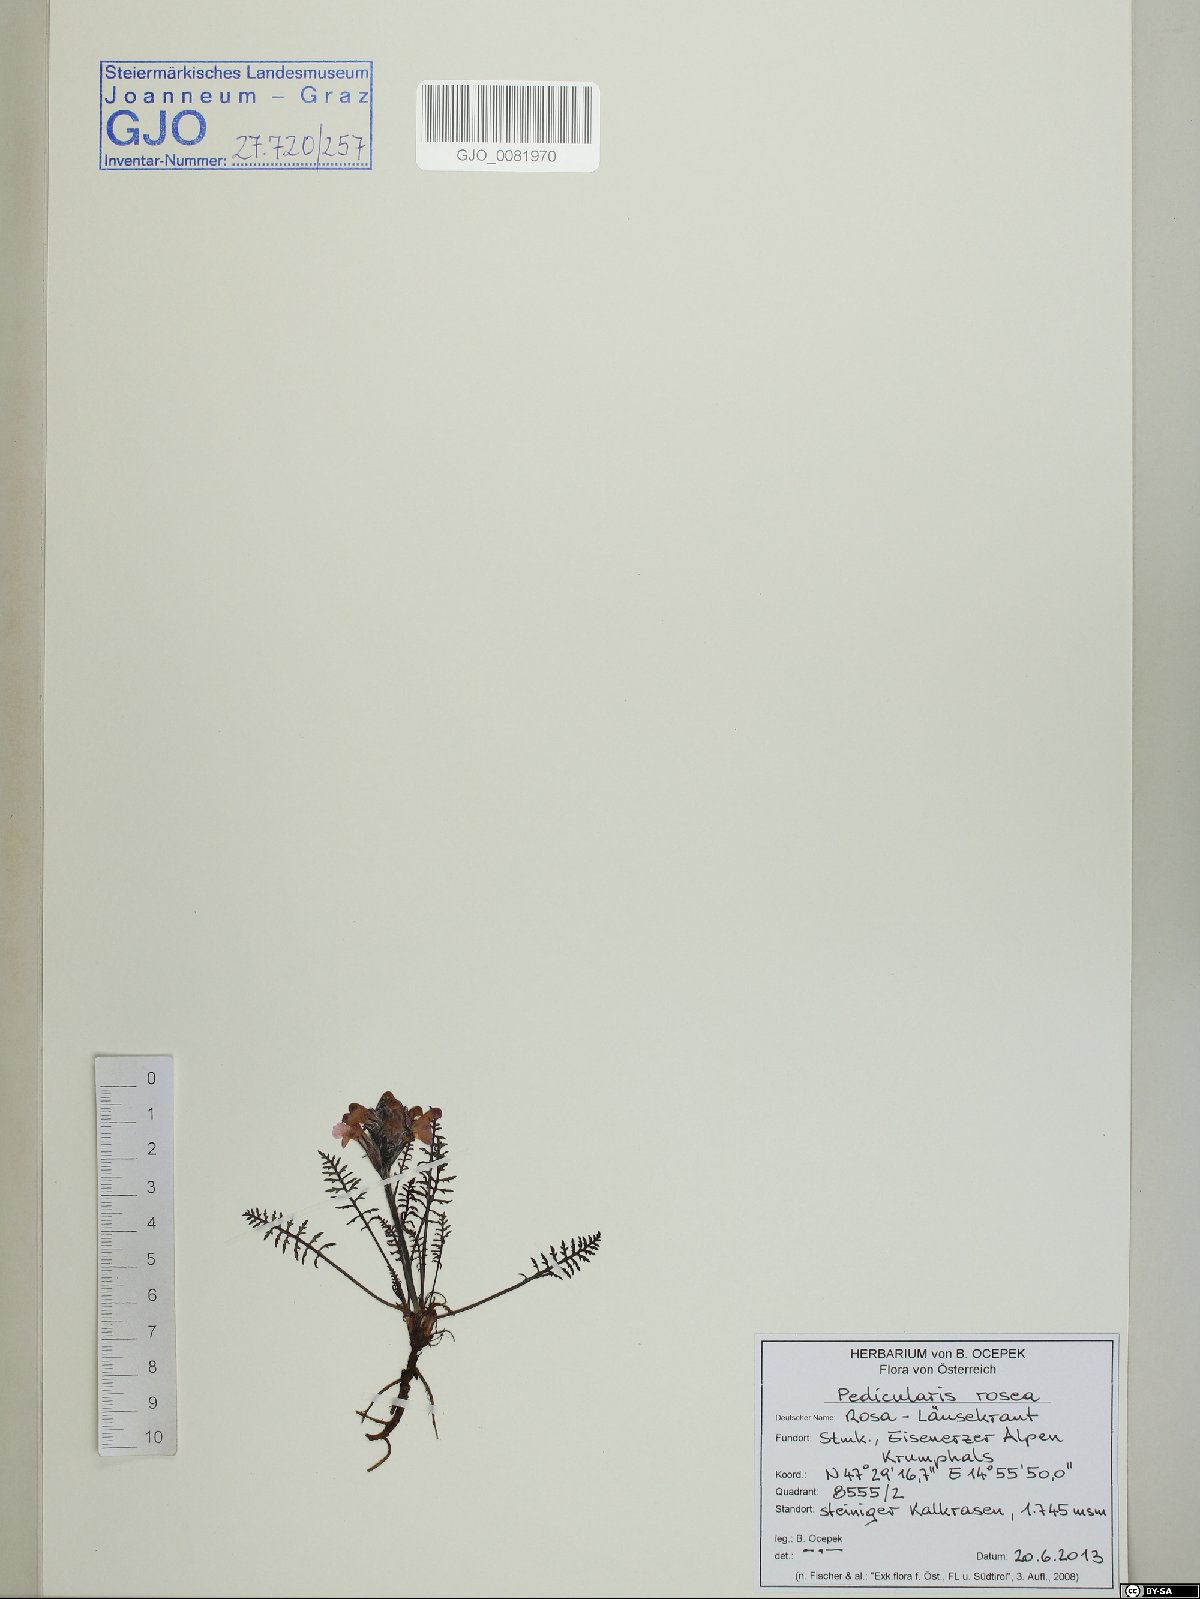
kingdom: Plantae
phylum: Tracheophyta
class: Magnoliopsida
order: Lamiales
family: Orobanchaceae
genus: Pedicularis
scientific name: Pedicularis rosea
